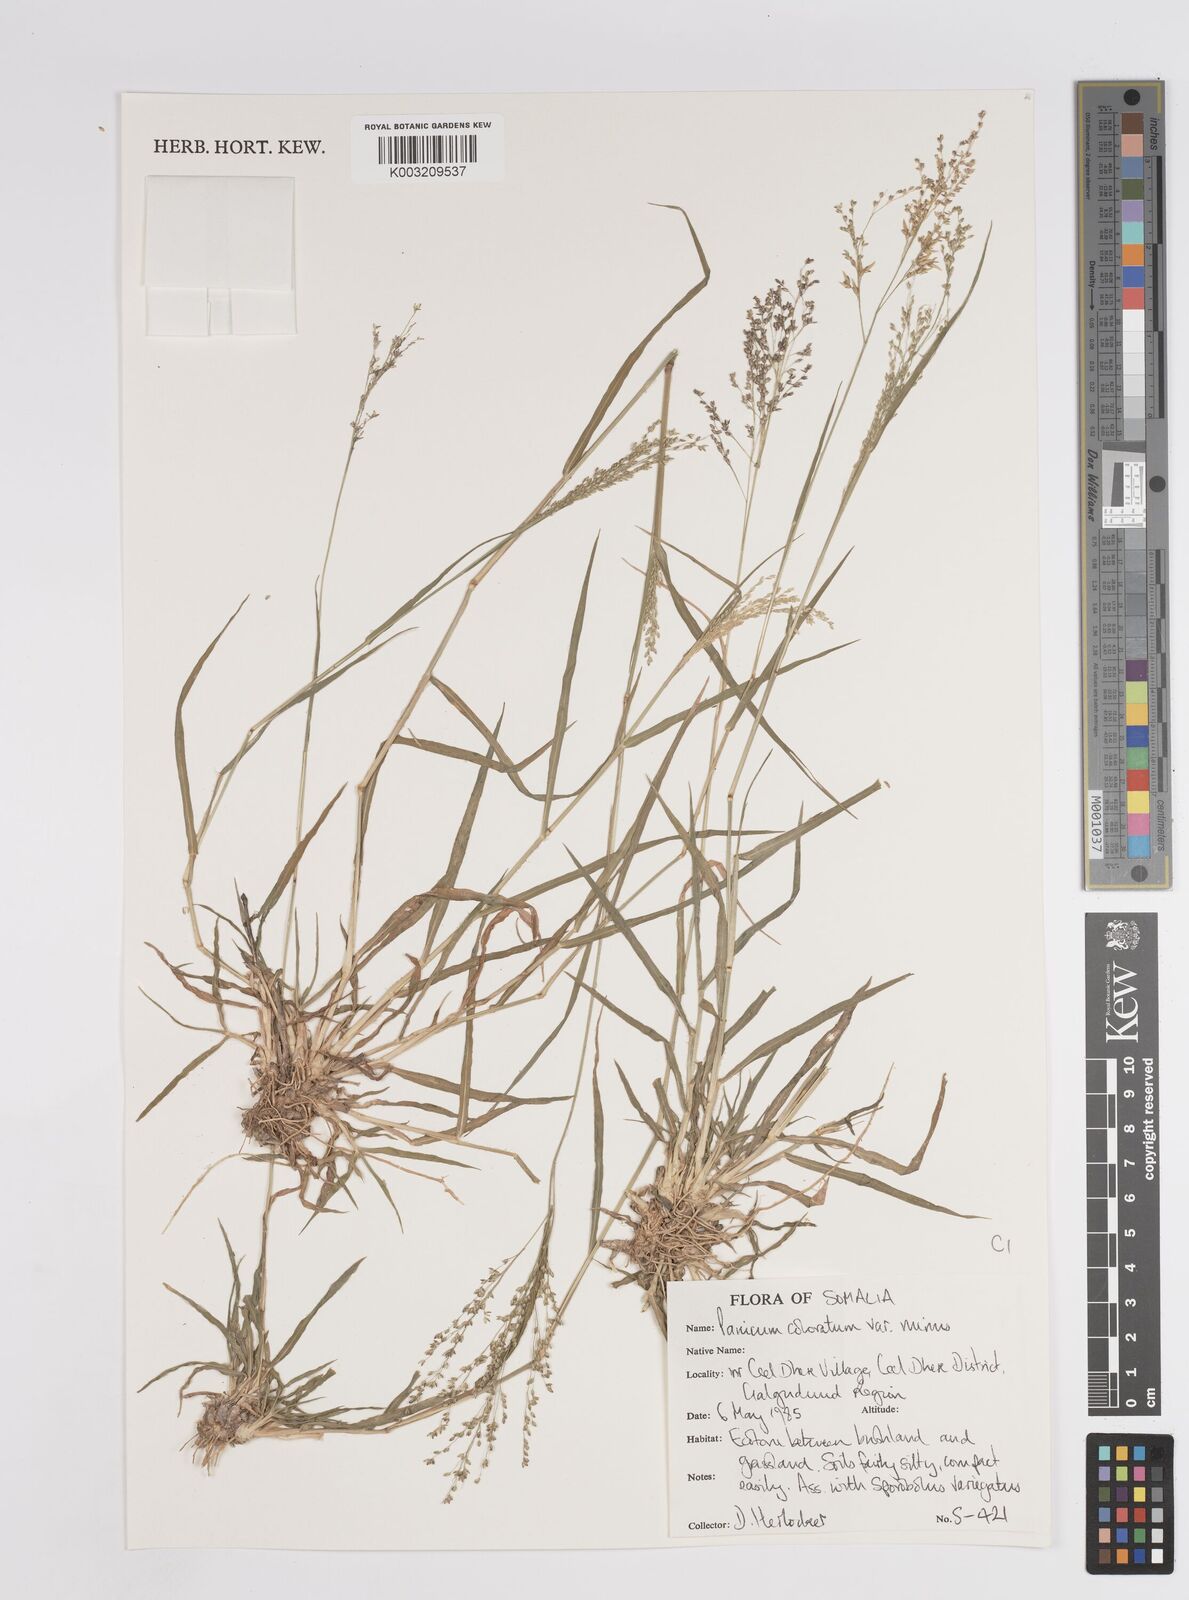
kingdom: Plantae
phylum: Tracheophyta
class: Liliopsida
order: Poales
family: Poaceae
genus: Panicum
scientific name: Panicum coloratum
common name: Kleingrass
